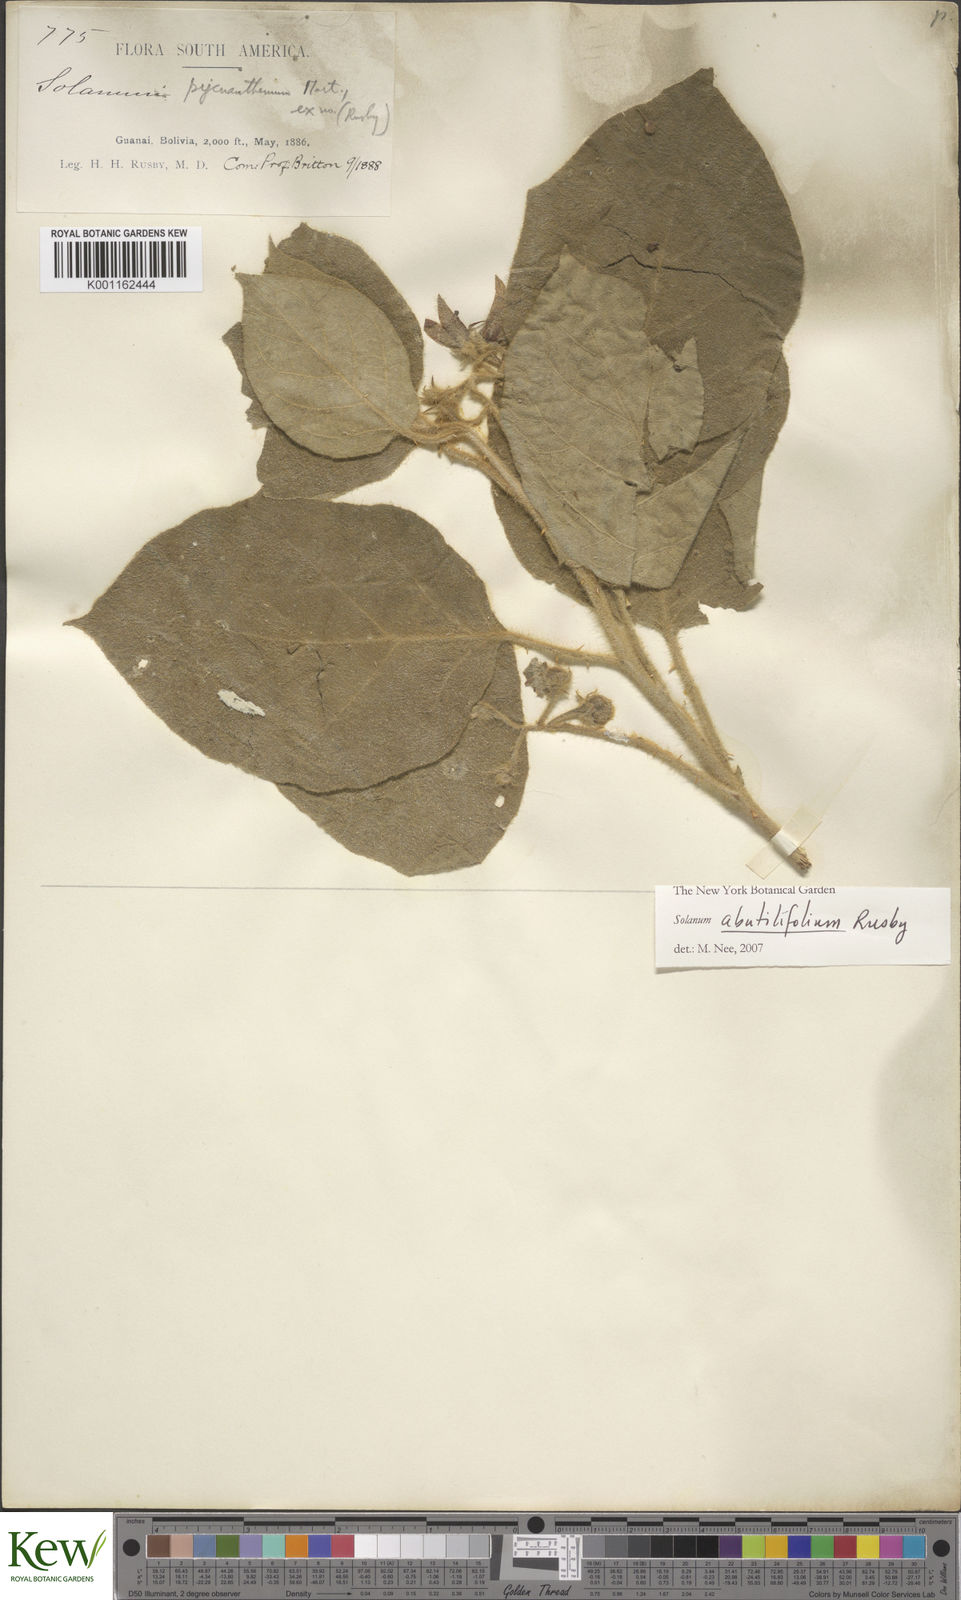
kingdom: Plantae
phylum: Tracheophyta
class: Magnoliopsida
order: Solanales
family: Solanaceae
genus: Solanum
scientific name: Solanum abutilifolium
